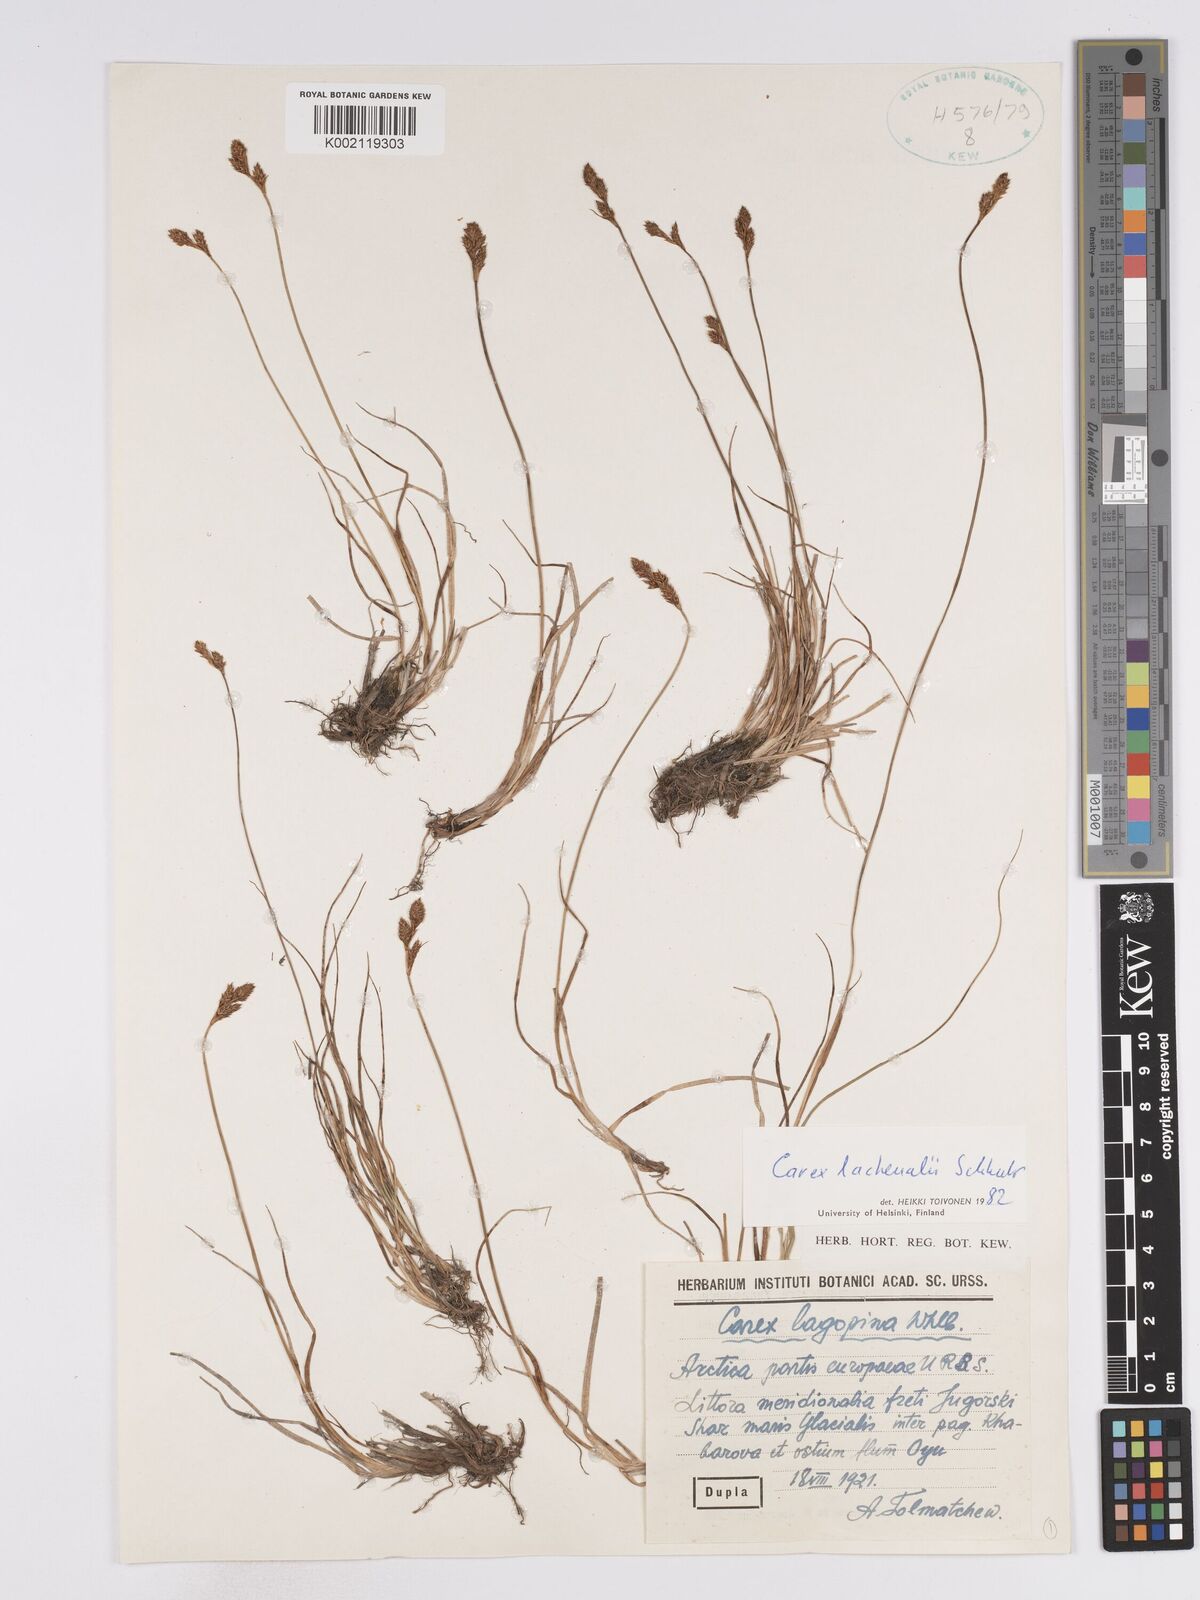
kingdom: Plantae
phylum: Tracheophyta
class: Liliopsida
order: Poales
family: Cyperaceae
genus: Carex
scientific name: Carex lachenalii
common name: Hare's-foot sedge
